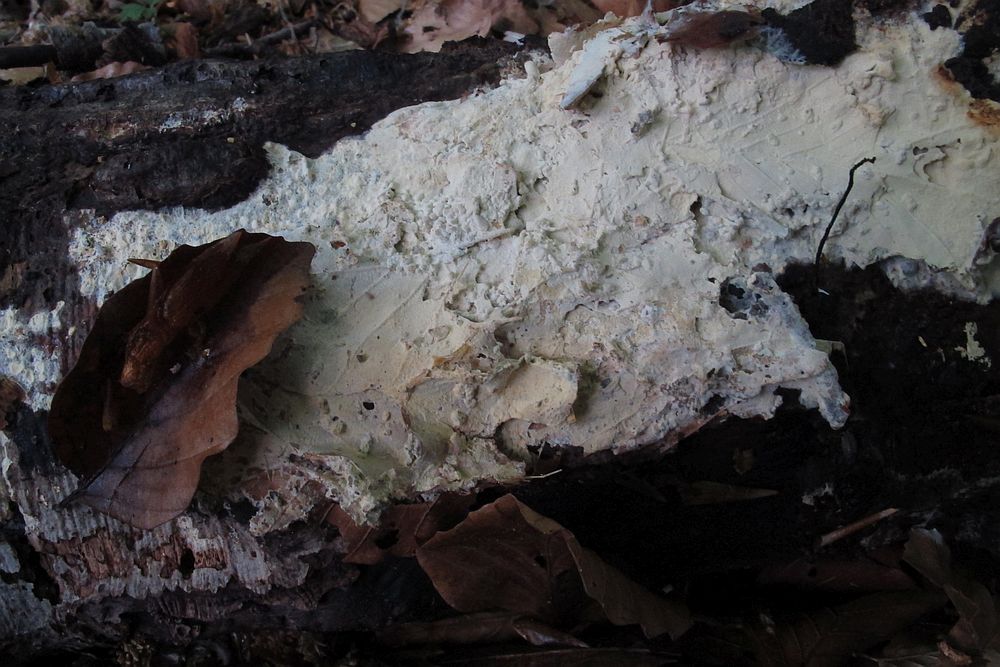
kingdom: Fungi
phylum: Basidiomycota
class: Agaricomycetes
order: Russulales
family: Peniophoraceae
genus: Vararia
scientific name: Vararia ochroleuca
